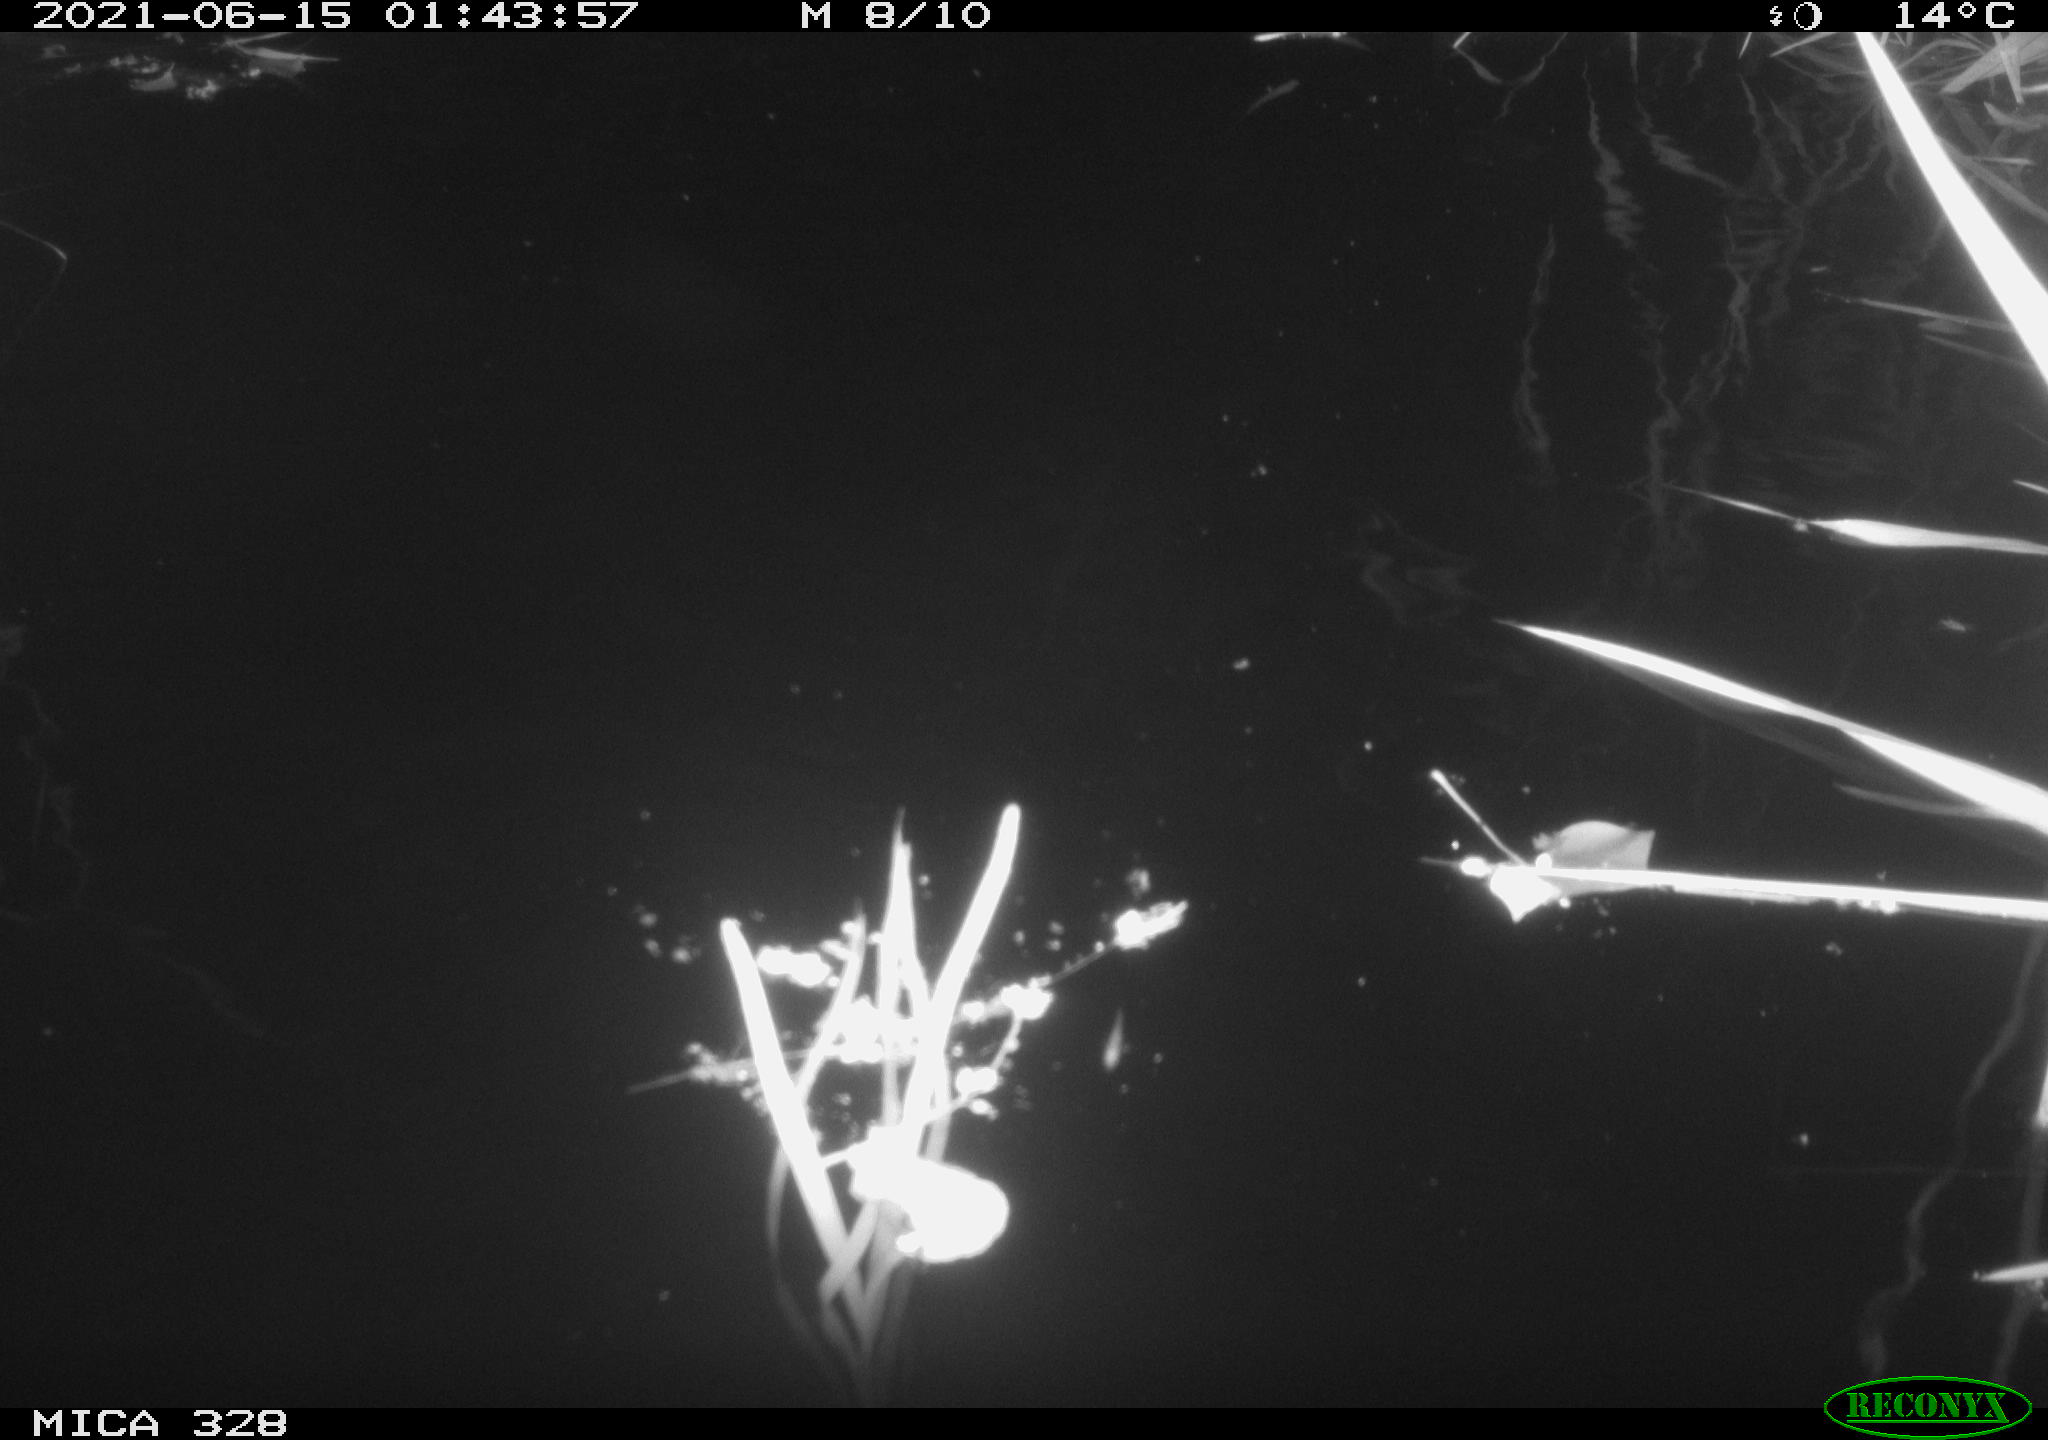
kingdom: Animalia
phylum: Chordata
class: Mammalia
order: Rodentia
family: Cricetidae
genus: Ondatra
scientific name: Ondatra zibethicus
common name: Muskrat
